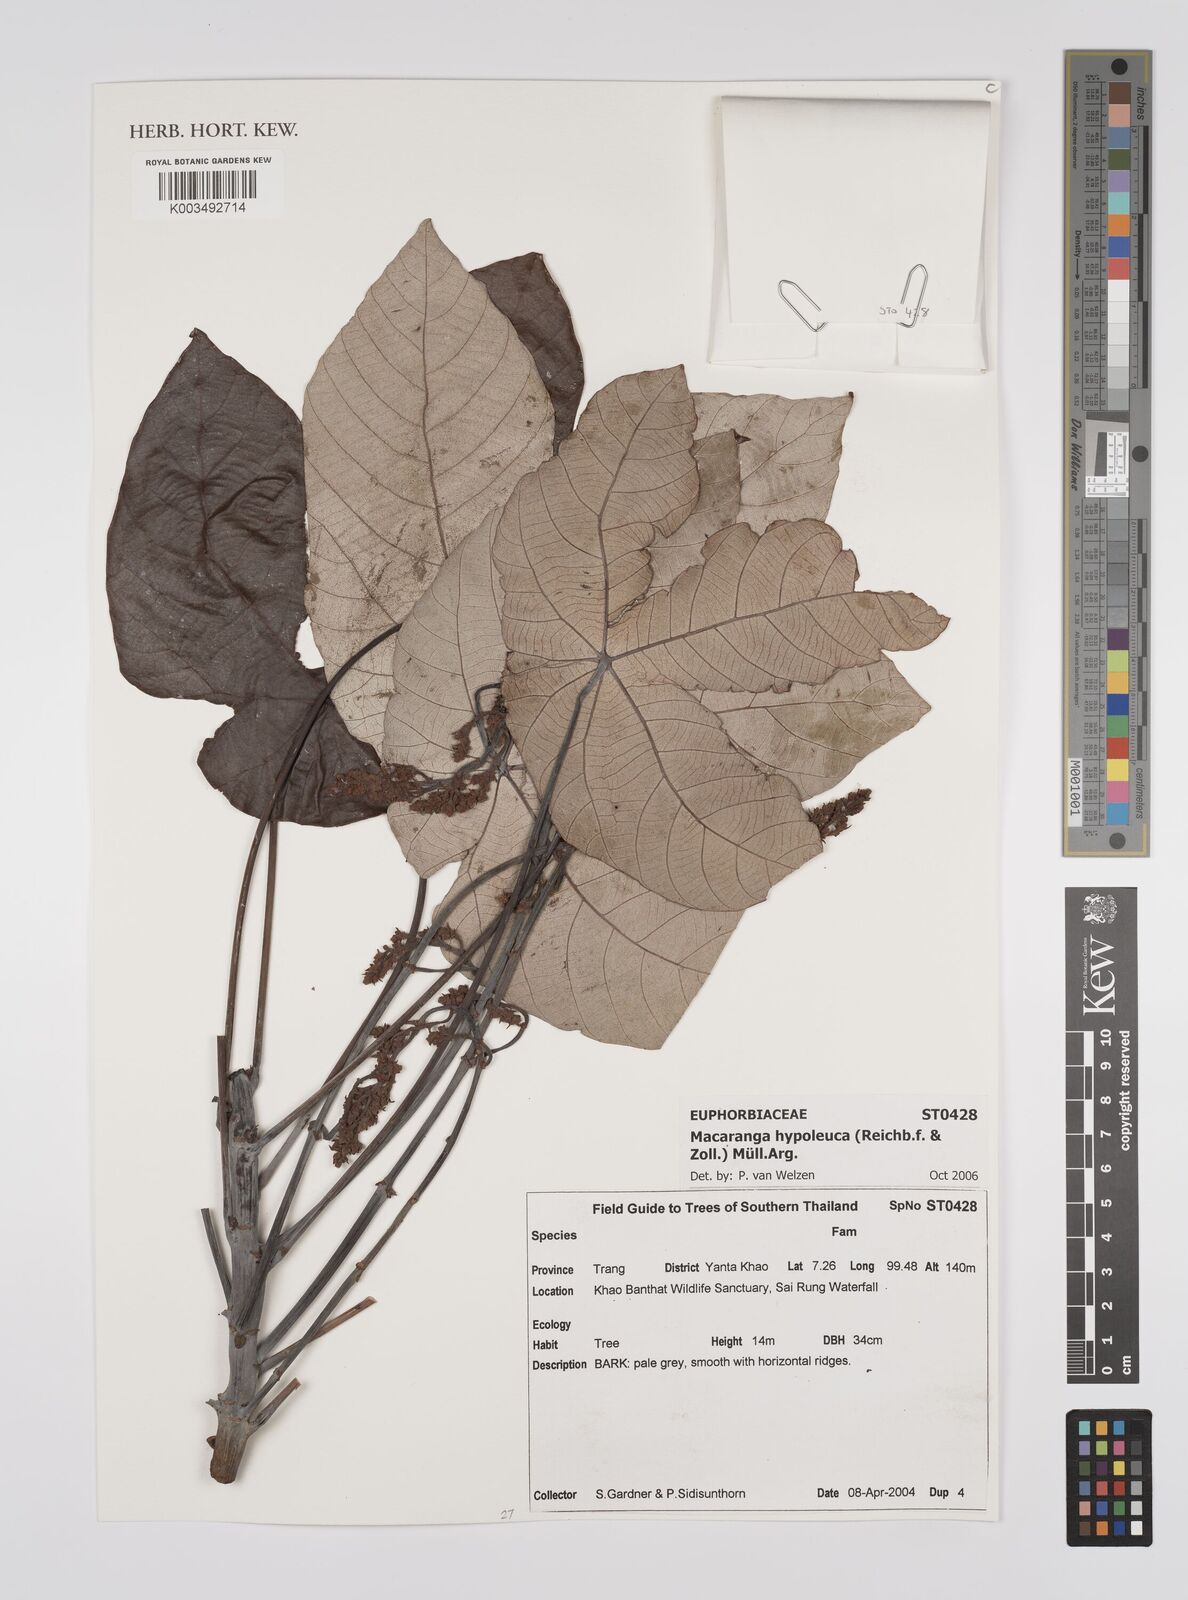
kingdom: Plantae
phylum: Tracheophyta
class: Magnoliopsida
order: Malpighiales
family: Euphorbiaceae
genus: Macaranga
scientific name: Macaranga hypoleuca
